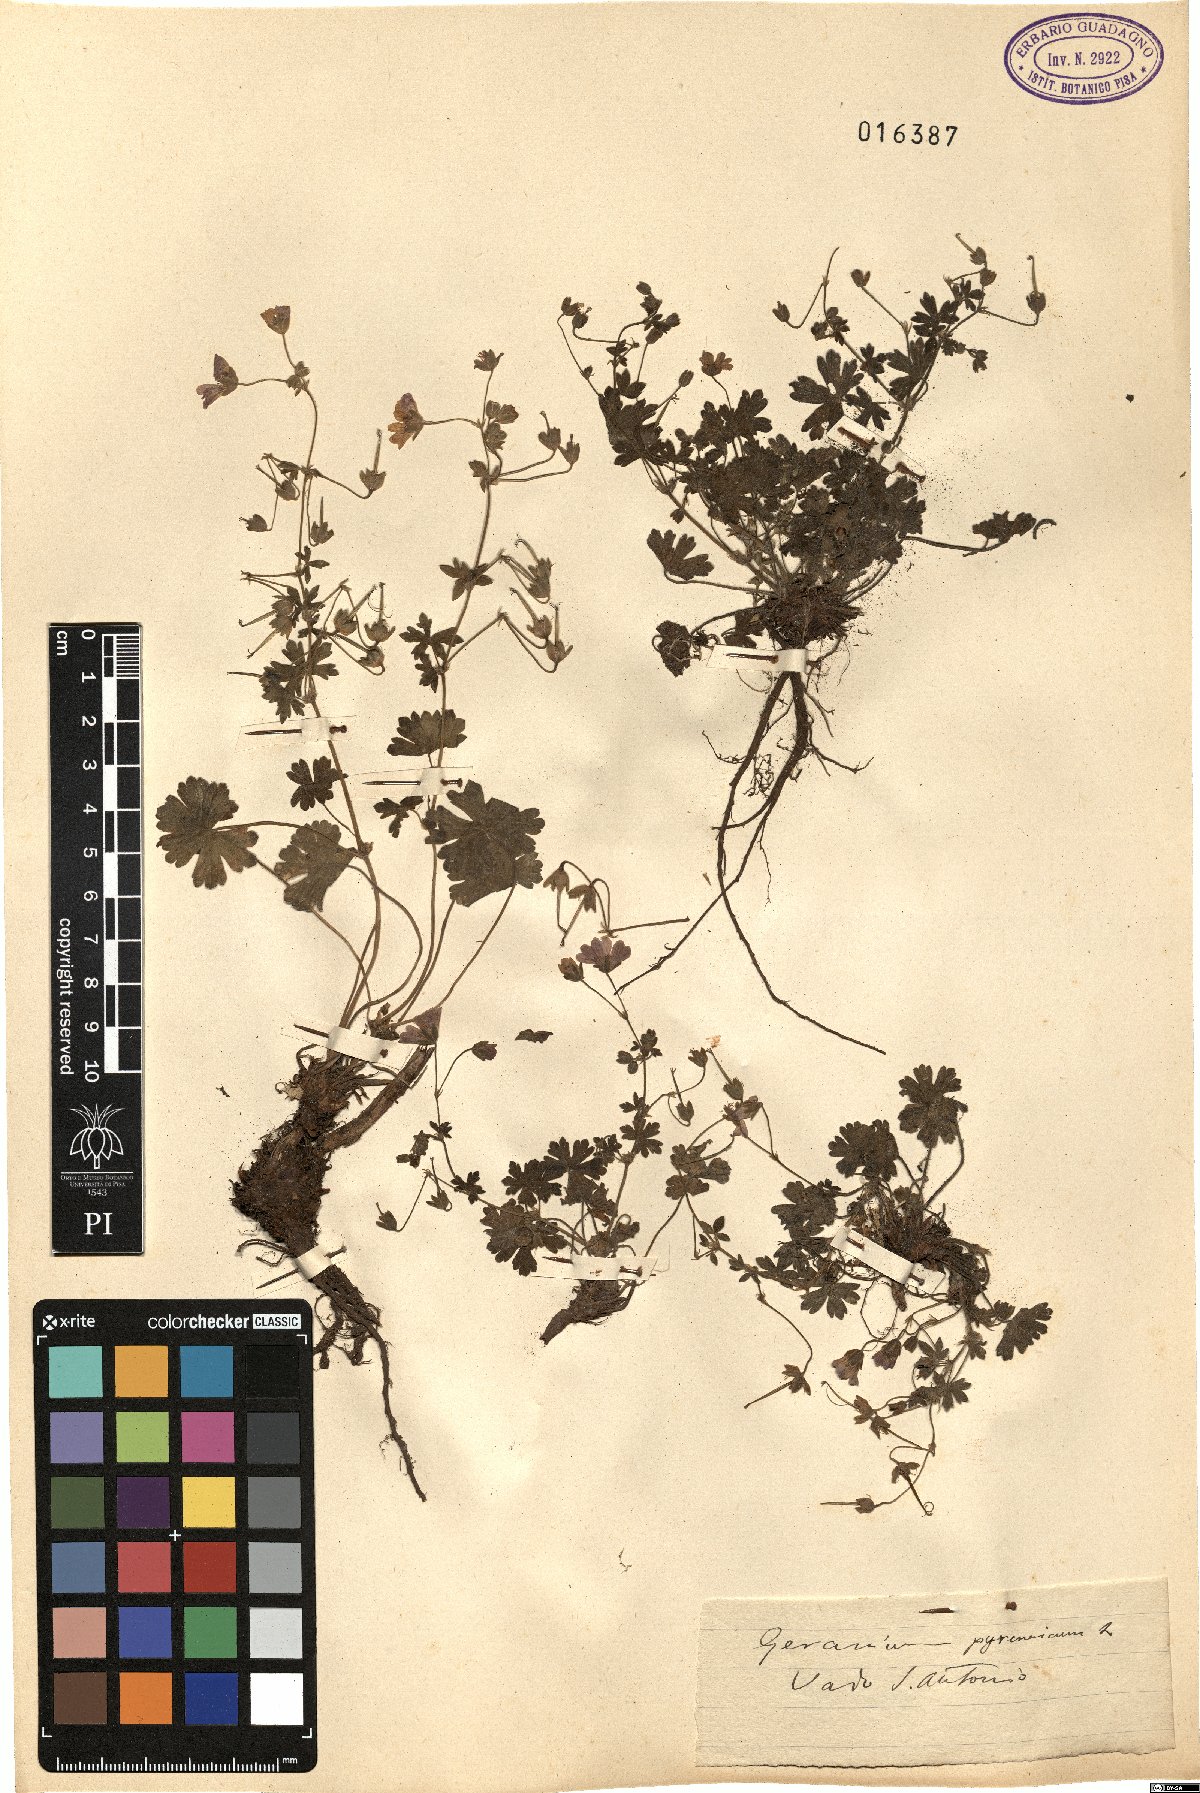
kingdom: Plantae
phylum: Tracheophyta
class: Magnoliopsida
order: Geraniales
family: Geraniaceae
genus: Geranium
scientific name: Geranium pyrenaicum
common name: Hedgerow crane's-bill
